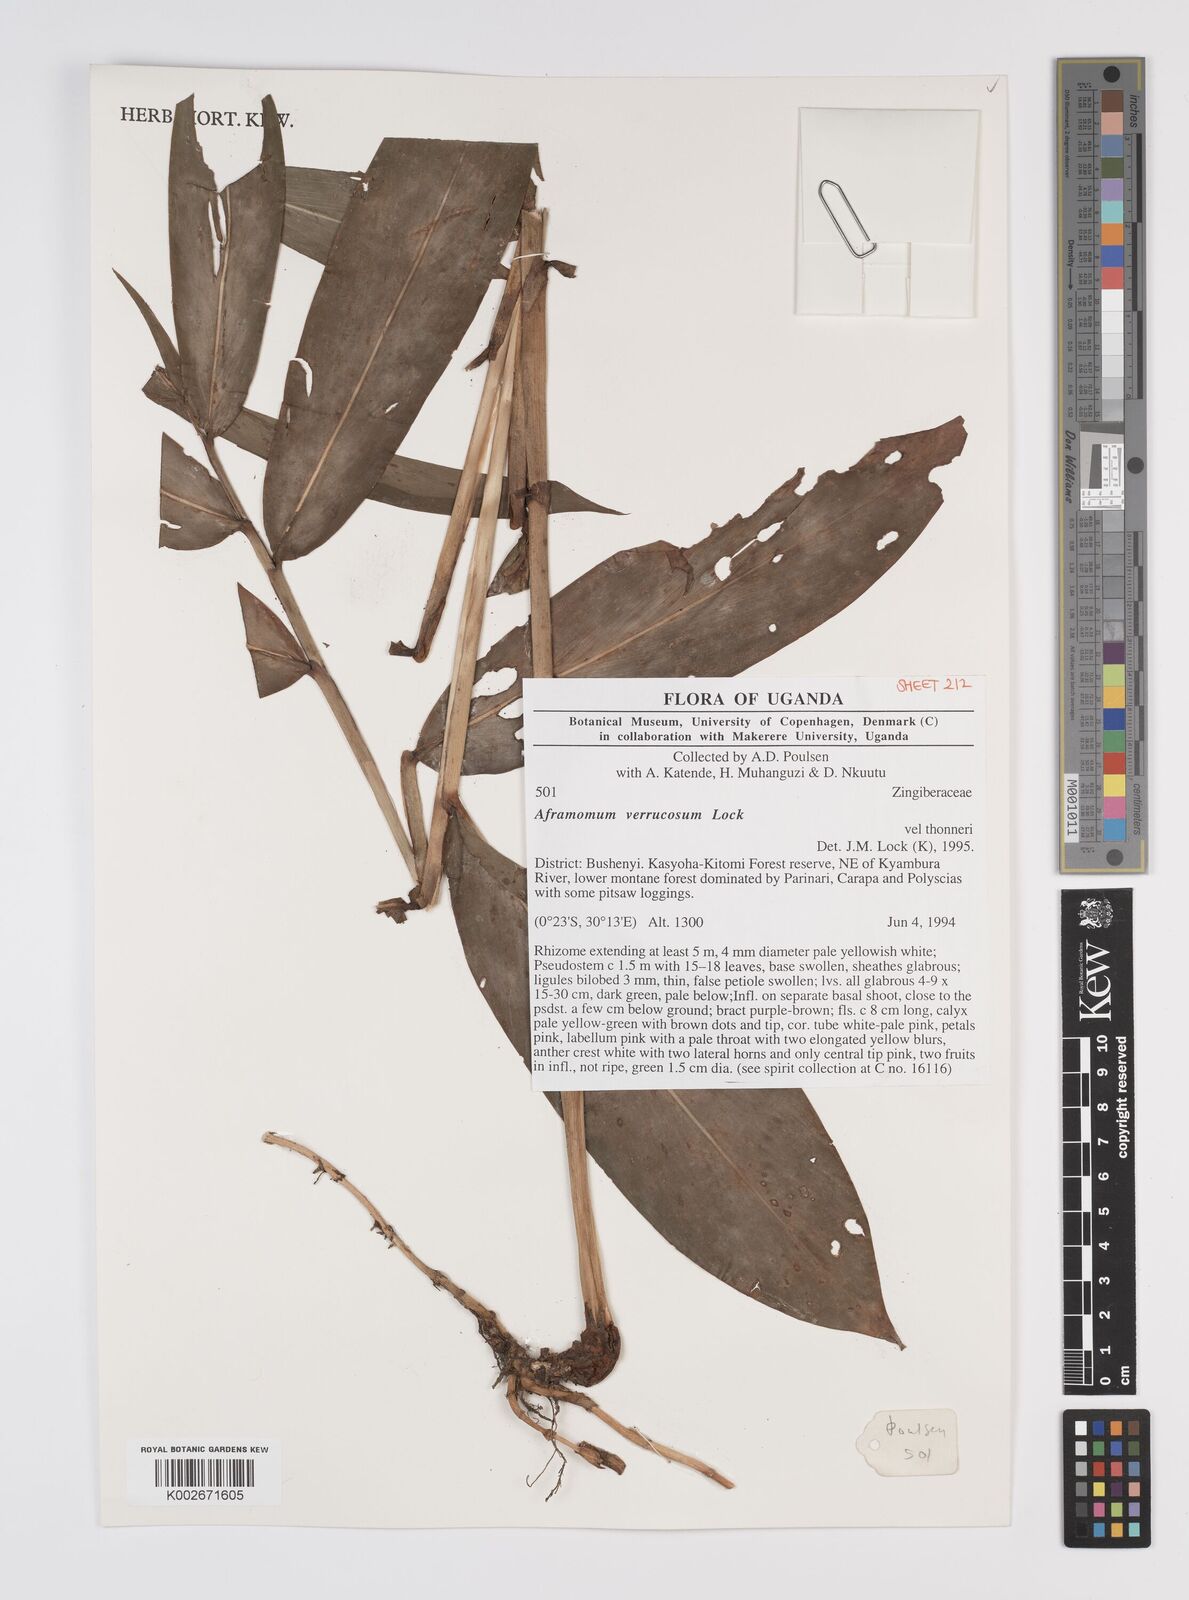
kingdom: Plantae
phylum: Tracheophyta
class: Liliopsida
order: Zingiberales
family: Zingiberaceae
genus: Aframomum
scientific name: Aframomum verrucosum
